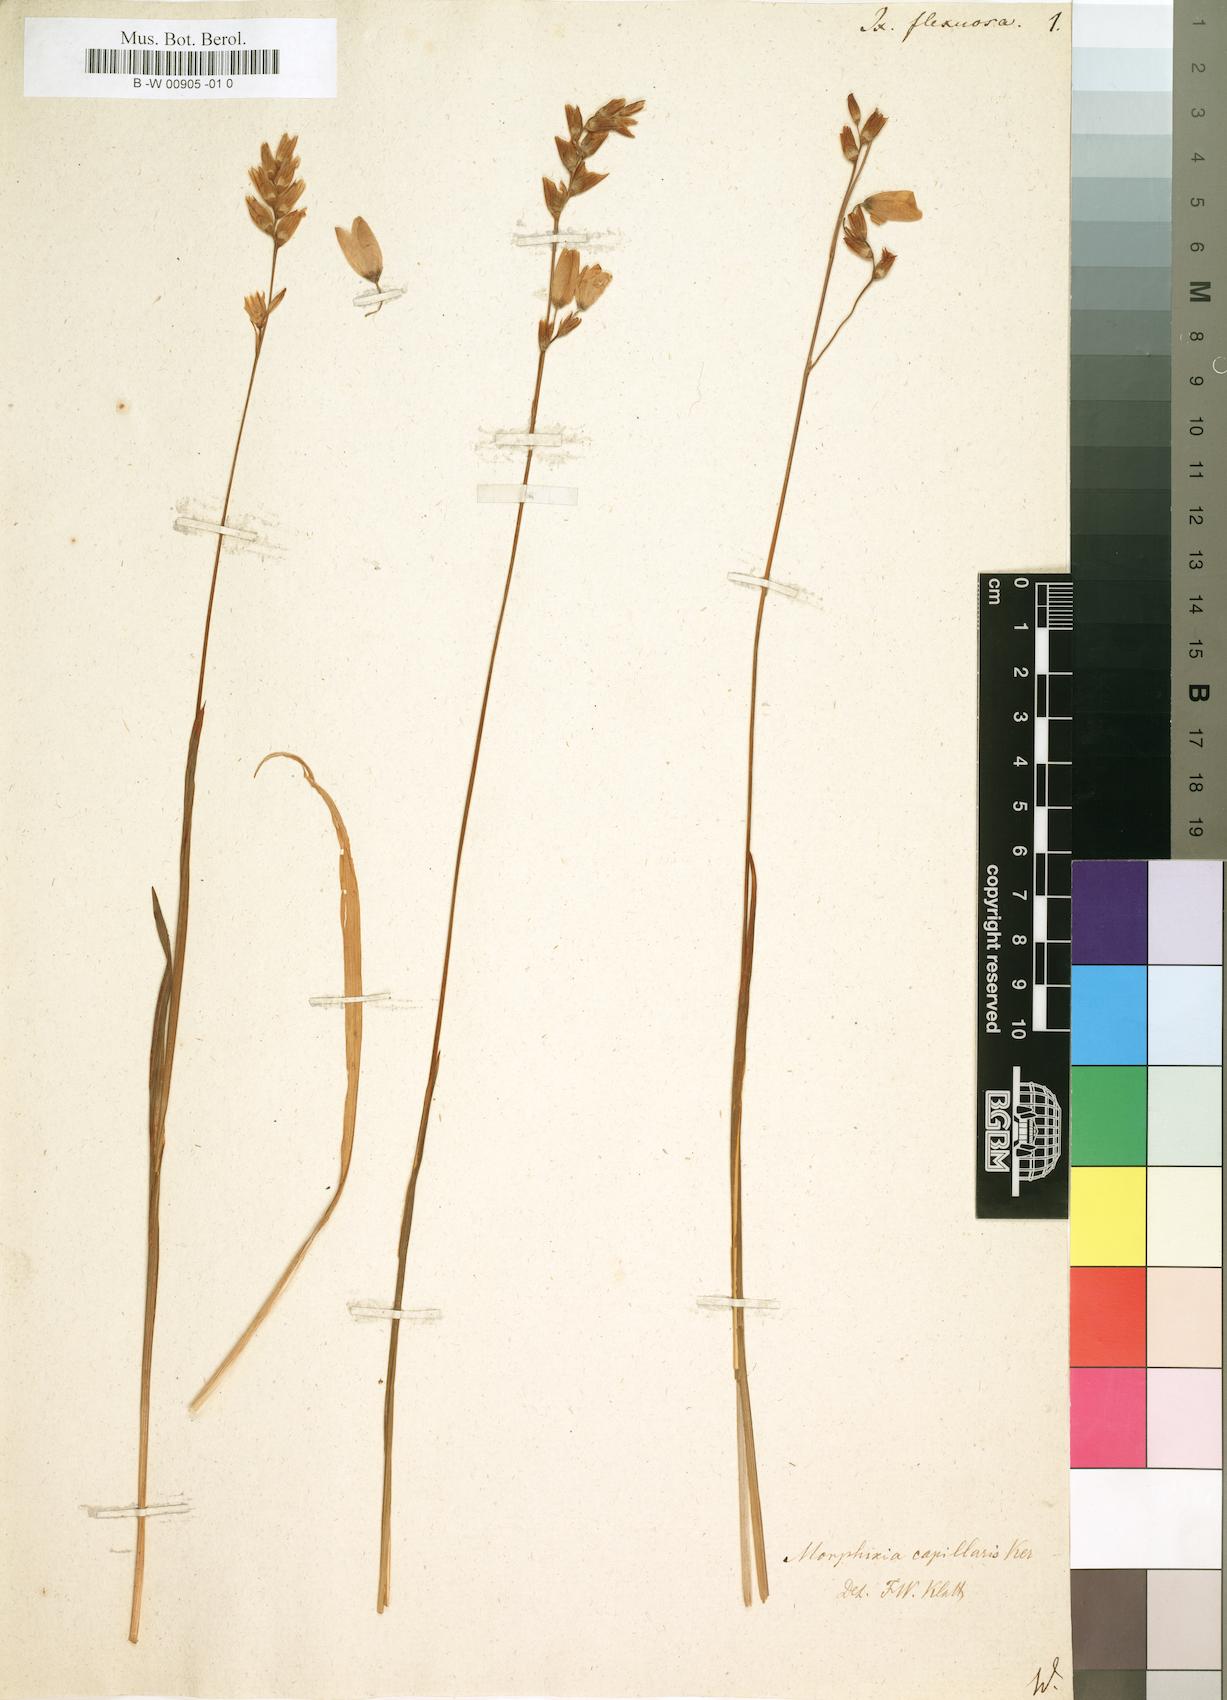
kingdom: Plantae
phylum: Tracheophyta
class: Liliopsida
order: Asparagales
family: Iridaceae
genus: Ixia
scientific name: Ixia flexuosa
